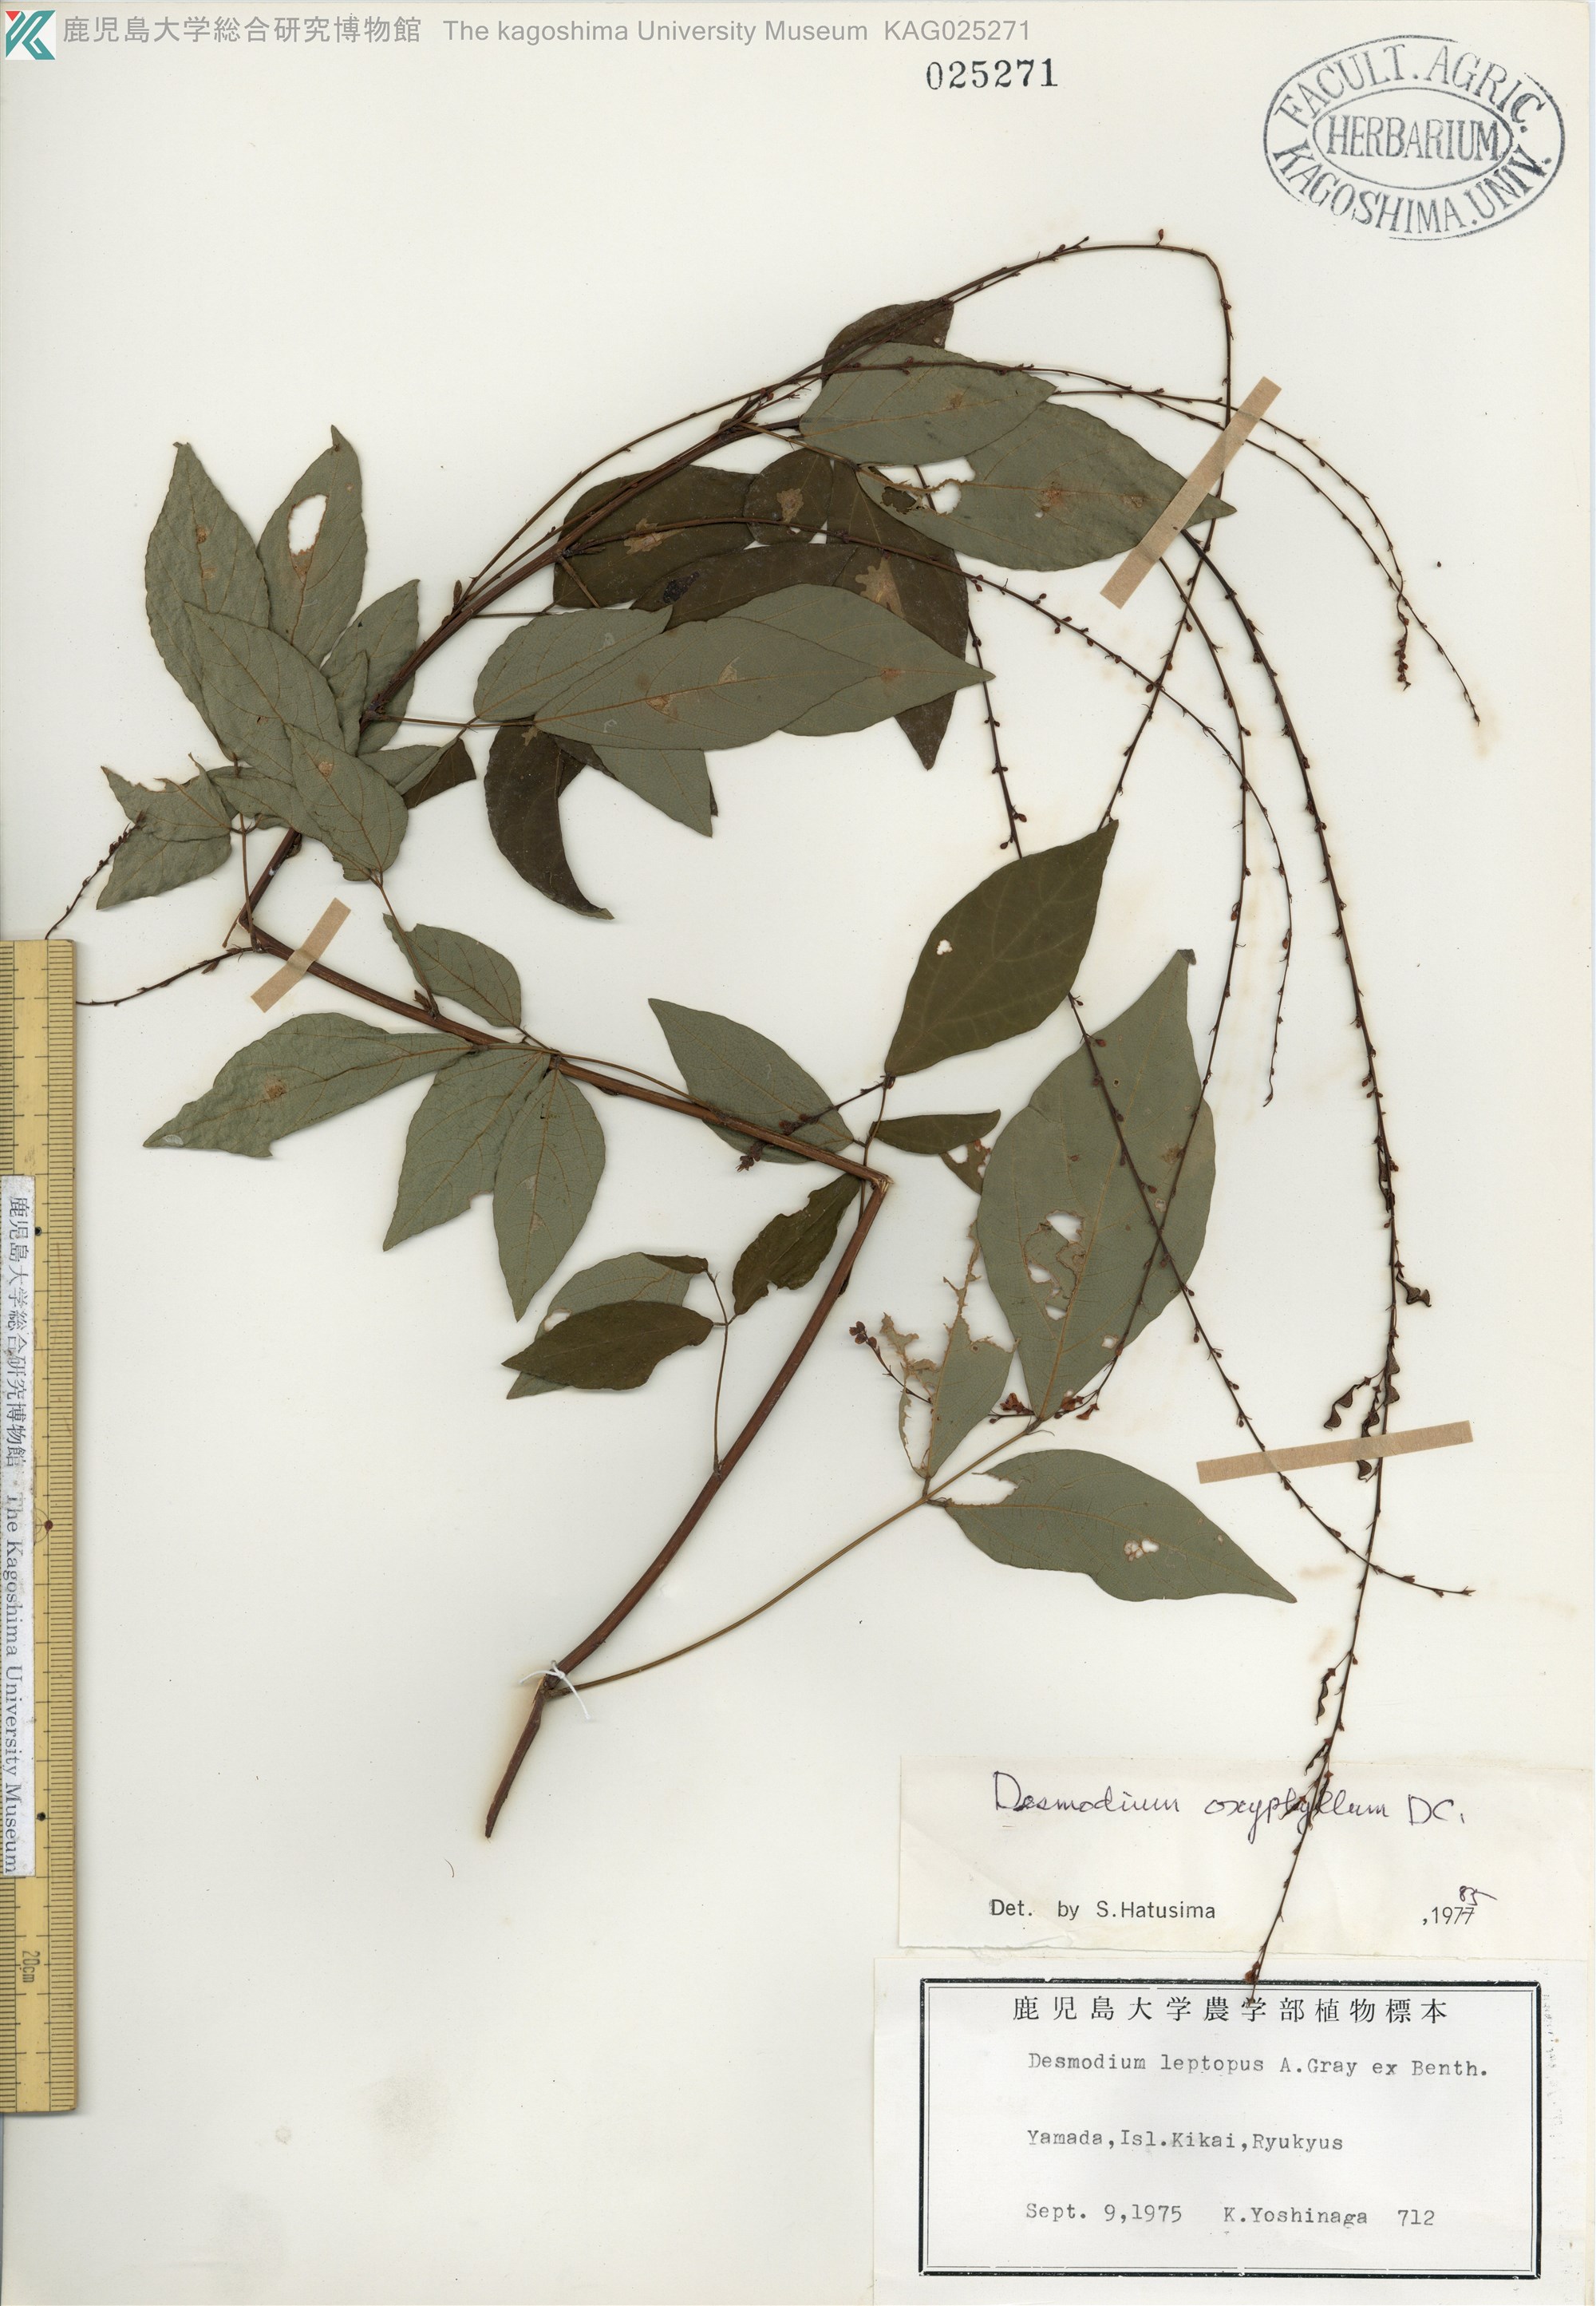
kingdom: Plantae
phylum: Tracheophyta
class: Magnoliopsida
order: Fabales
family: Fabaceae
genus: Hylodesmum
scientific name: Hylodesmum podocarpum
